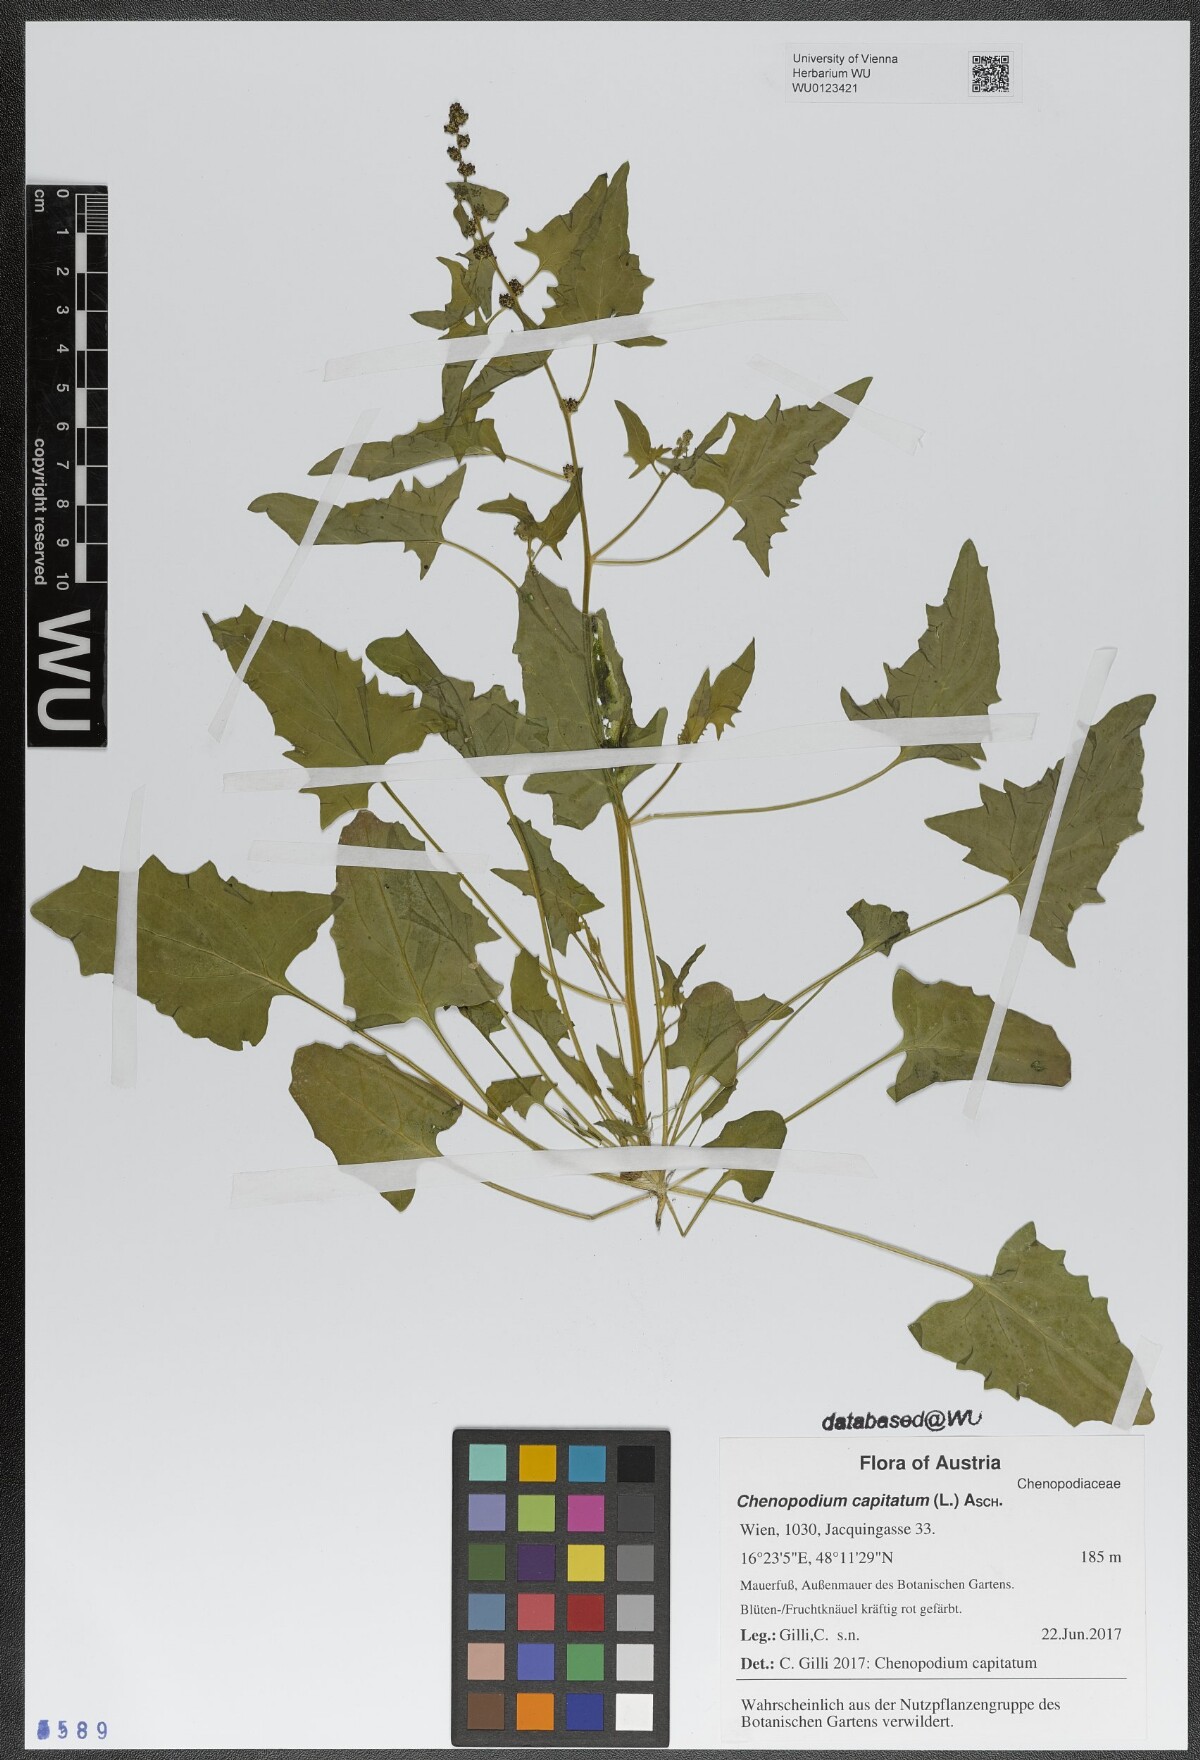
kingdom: Plantae
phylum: Tracheophyta
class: Magnoliopsida
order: Caryophyllales
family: Amaranthaceae
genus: Blitum
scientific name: Blitum capitatum
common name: Strawberry-blight
